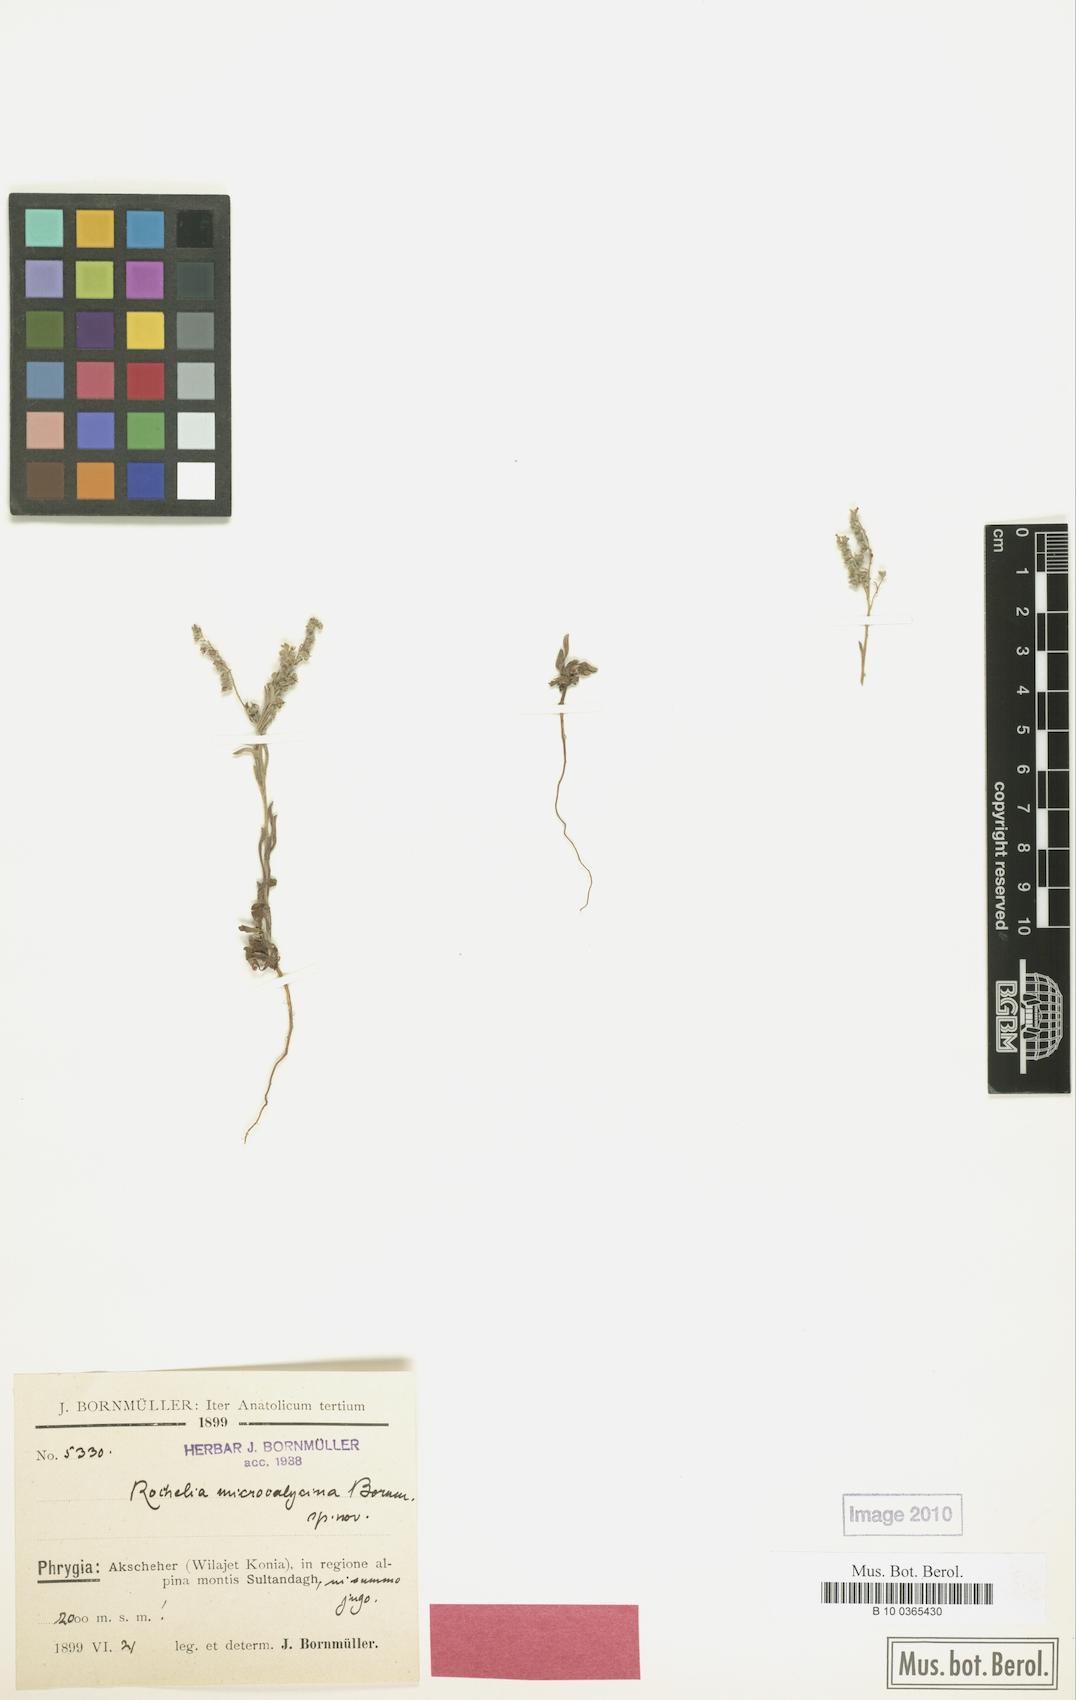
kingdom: Plantae
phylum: Tracheophyta
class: Magnoliopsida
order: Boraginales
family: Boraginaceae
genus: Rochelia
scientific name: Rochelia disperma
